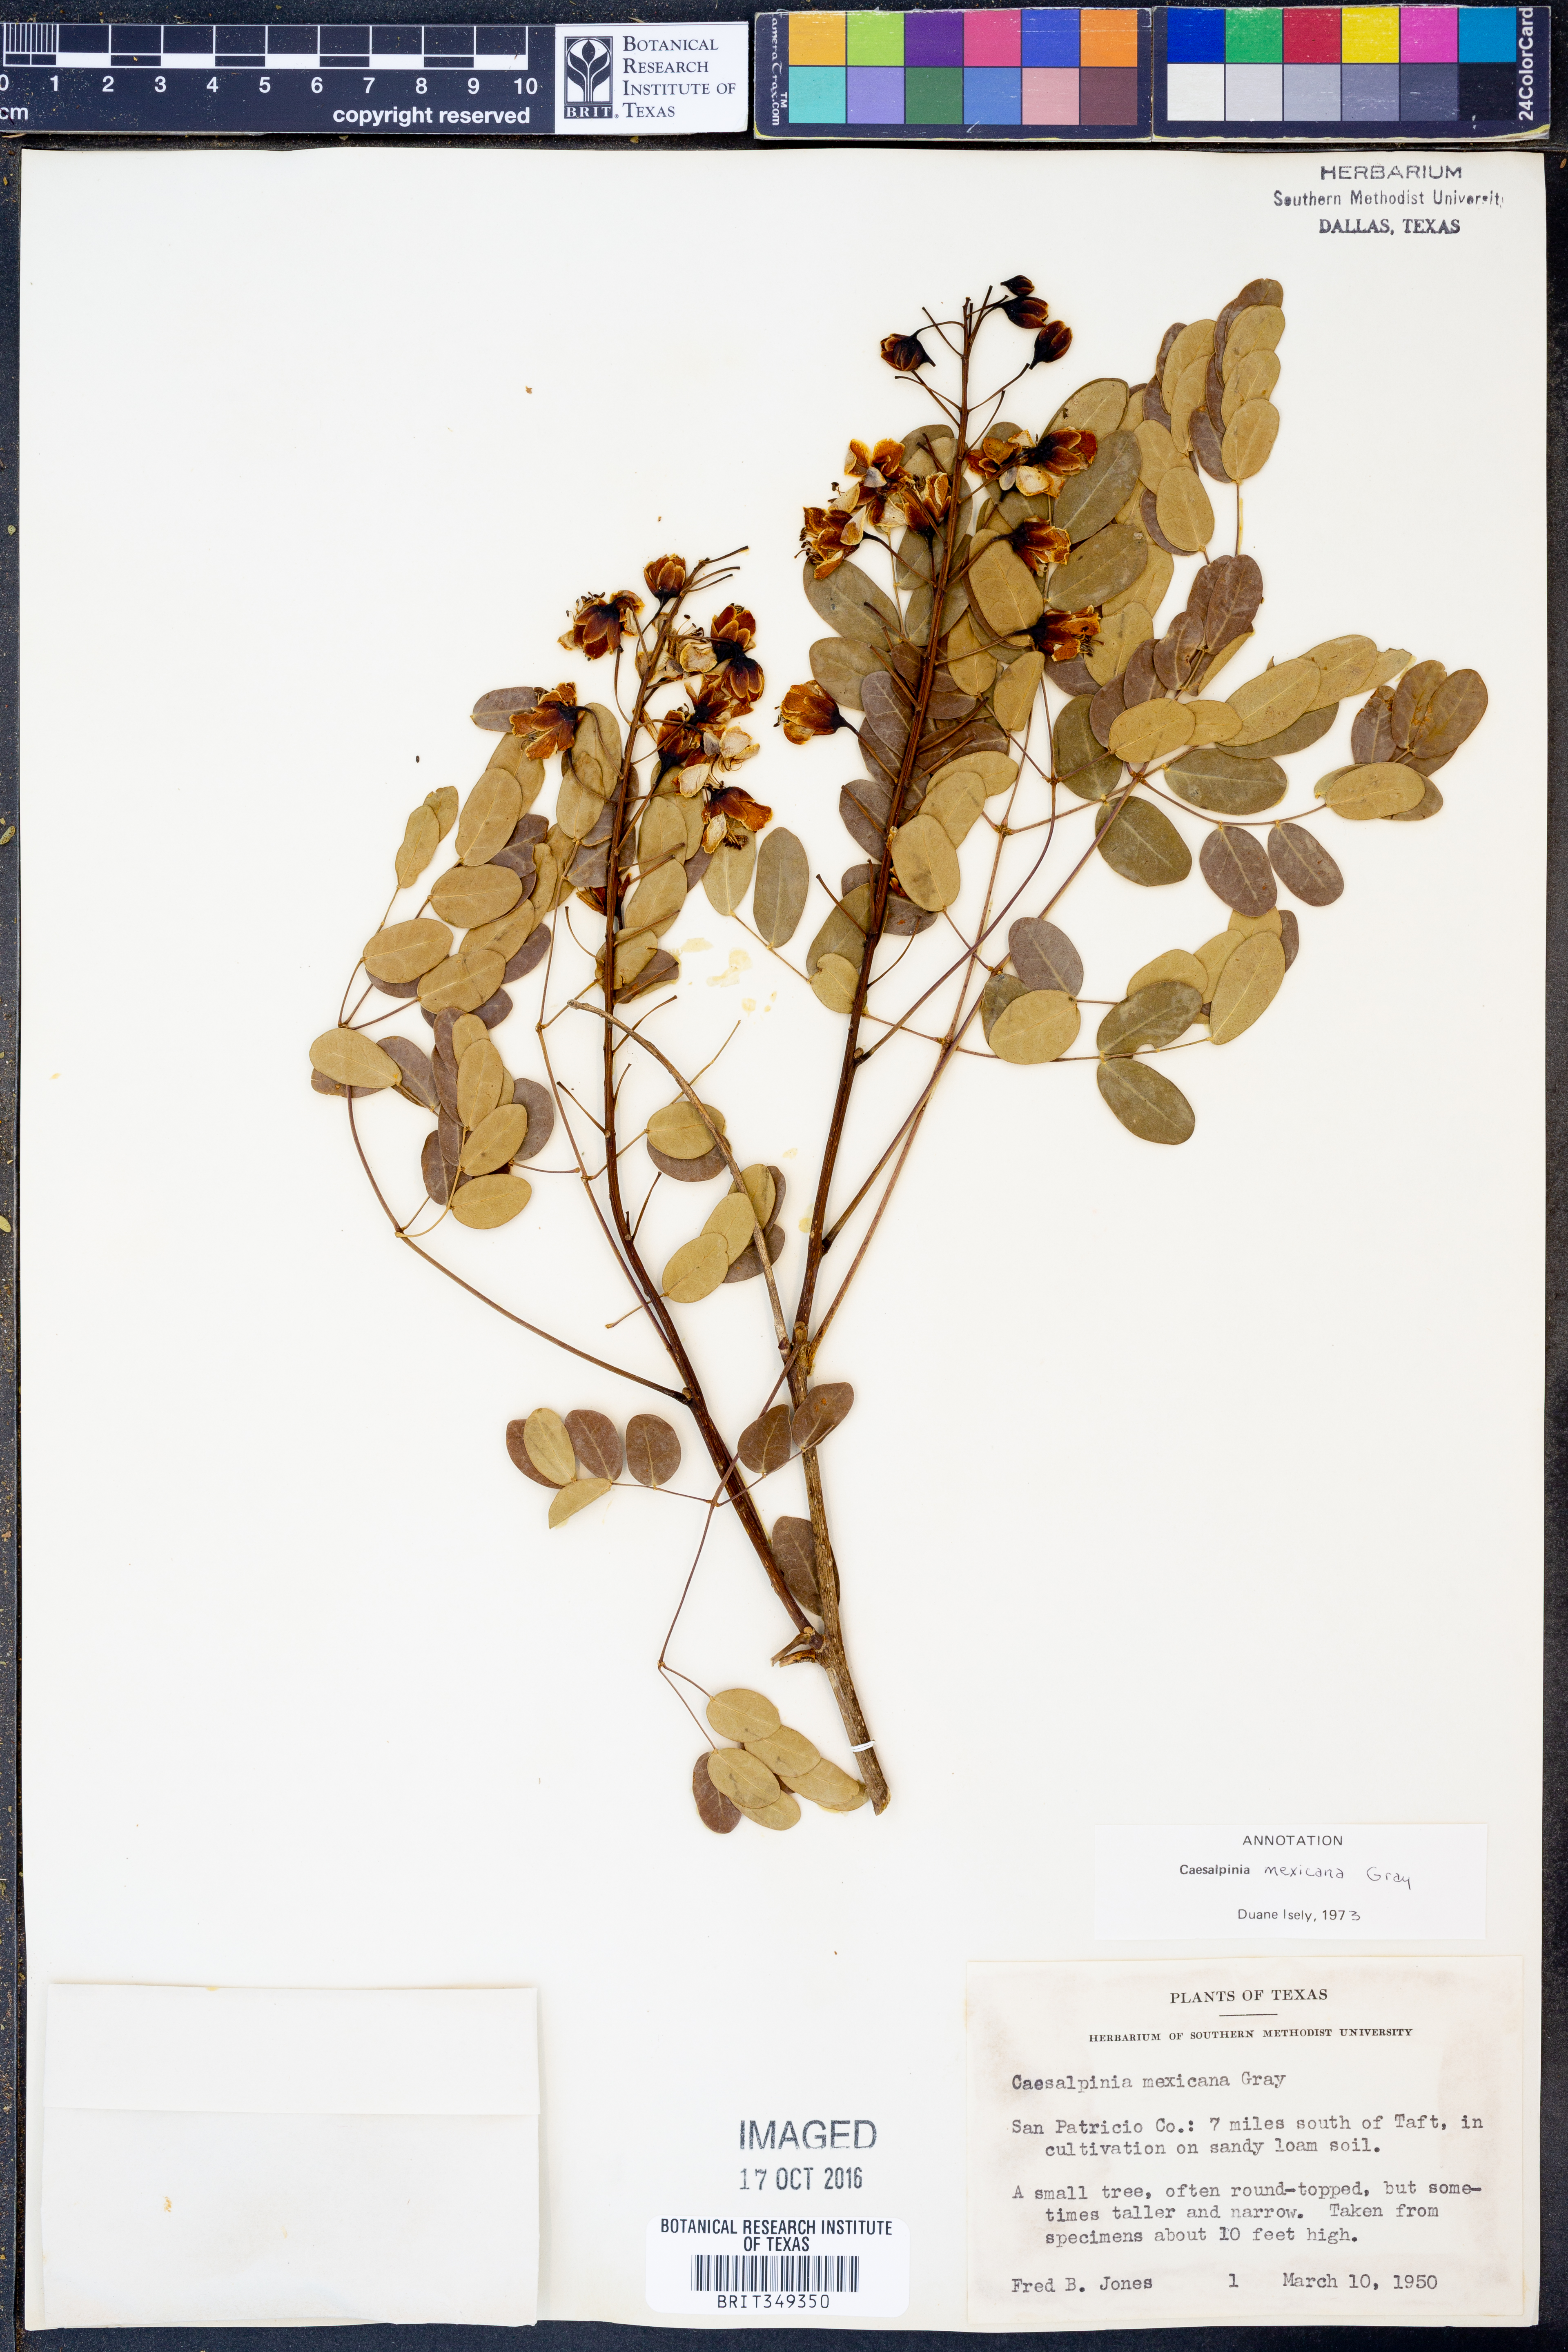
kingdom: Plantae
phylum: Tracheophyta
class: Magnoliopsida
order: Fabales
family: Fabaceae
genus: Erythrostemon
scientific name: Erythrostemon mexicanus
